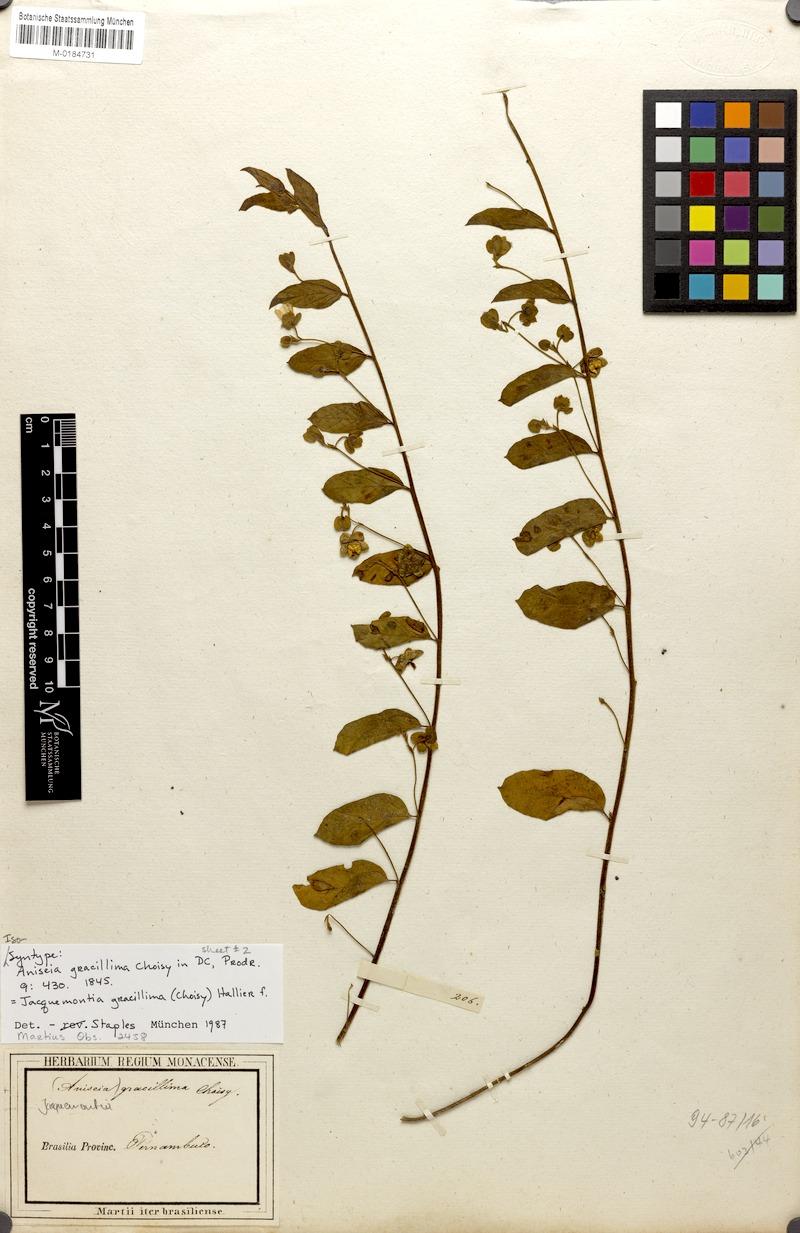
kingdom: Plantae
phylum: Tracheophyta
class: Magnoliopsida
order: Solanales
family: Convolvulaceae
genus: Jacquemontia
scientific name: Jacquemontia gracillima
